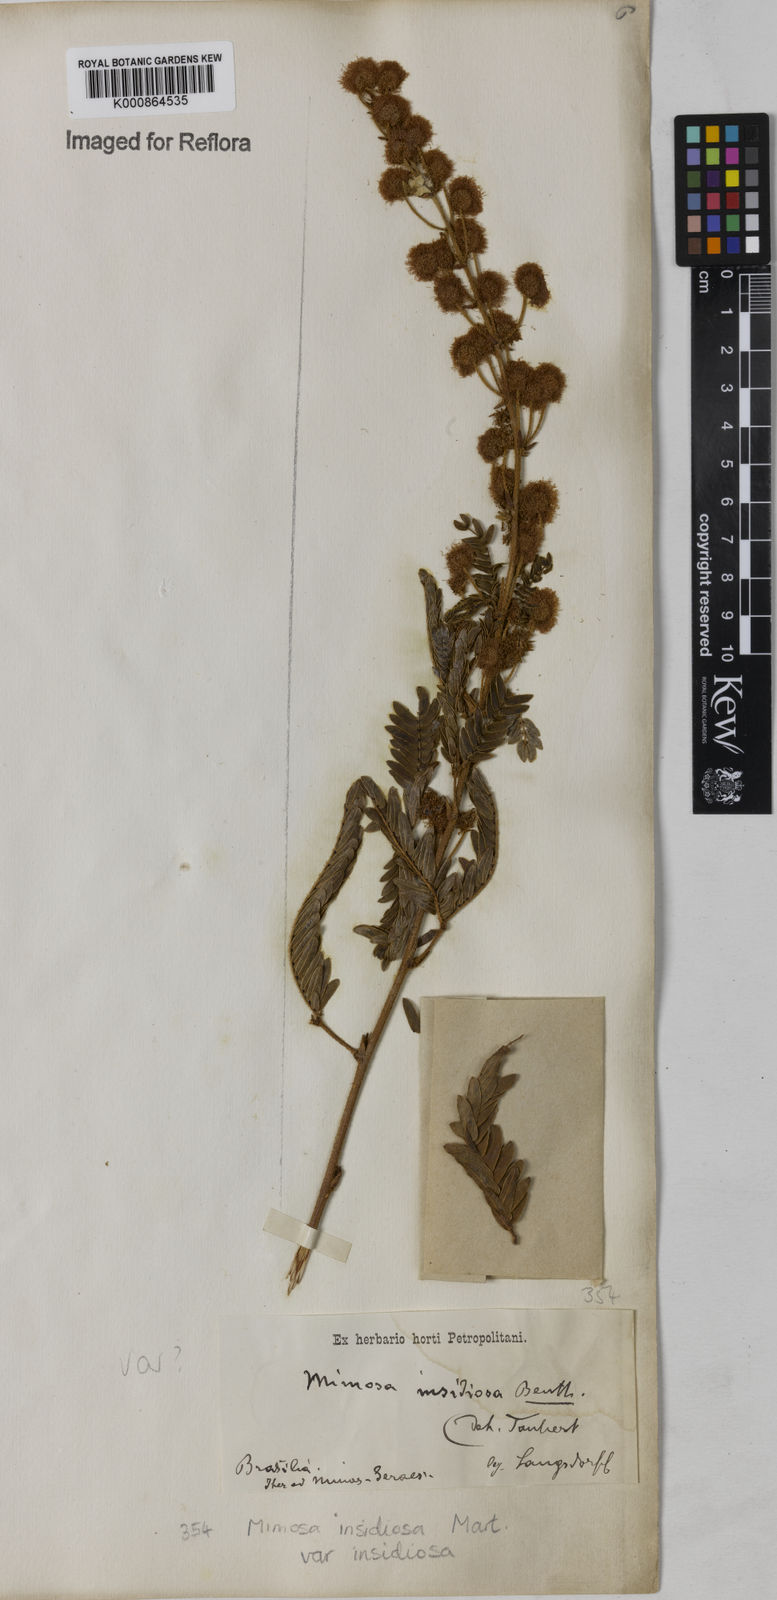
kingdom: Plantae
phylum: Tracheophyta
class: Magnoliopsida
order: Fabales
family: Fabaceae
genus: Mimosa
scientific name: Mimosa insidiosa
